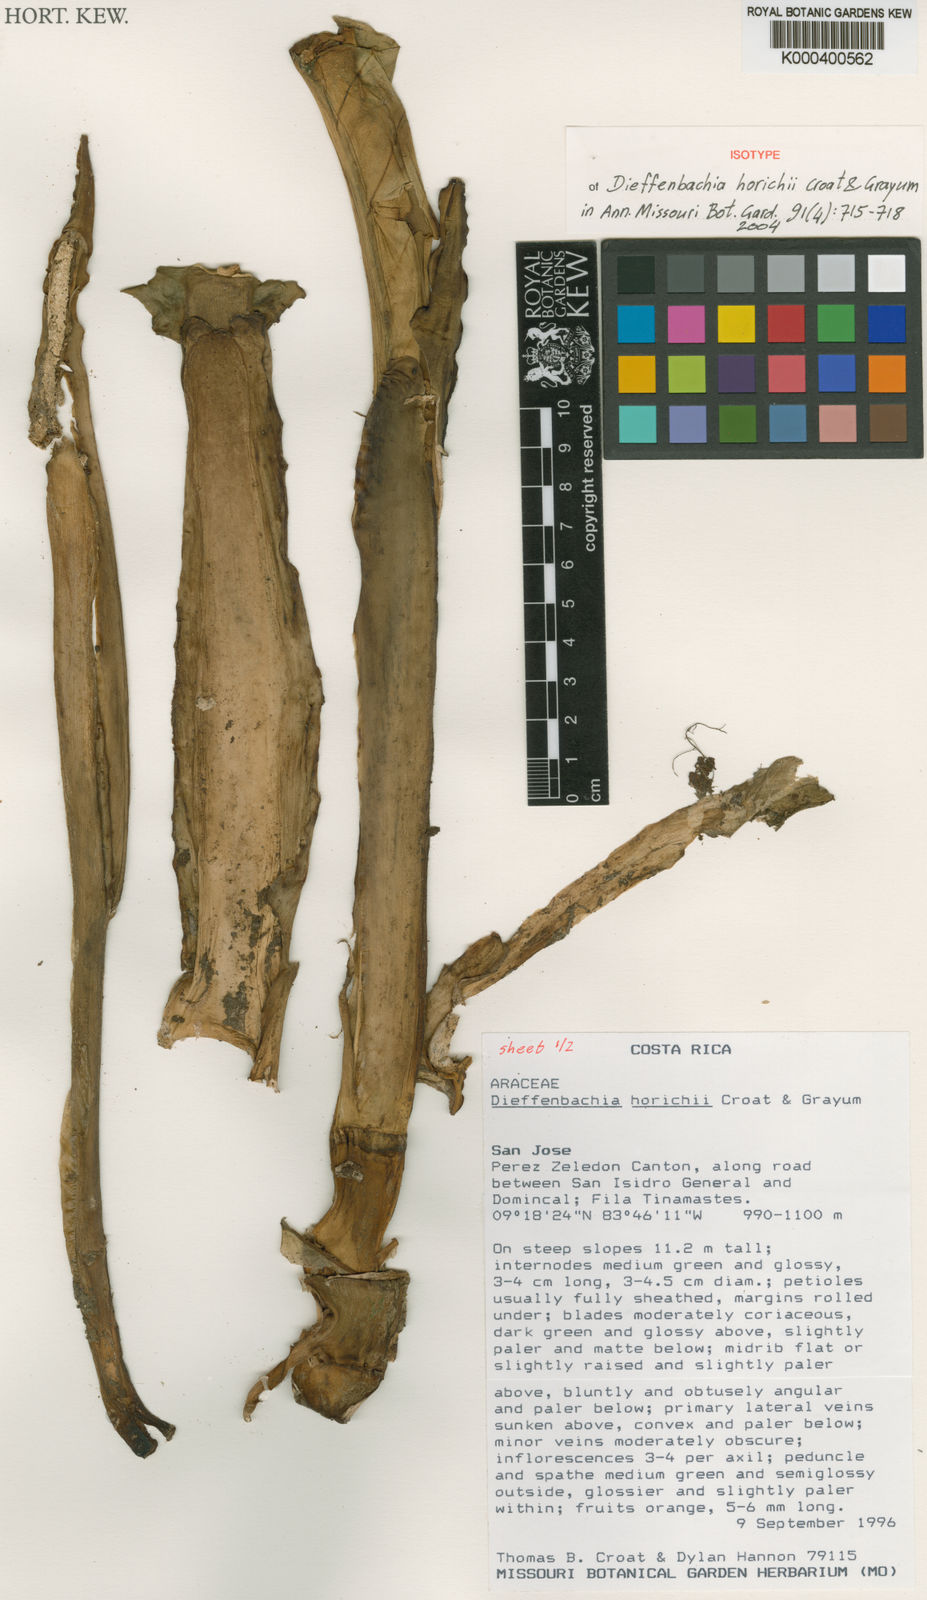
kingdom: Plantae
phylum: Tracheophyta
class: Liliopsida
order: Alismatales
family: Araceae
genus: Dieffenbachia
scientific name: Dieffenbachia horichii
